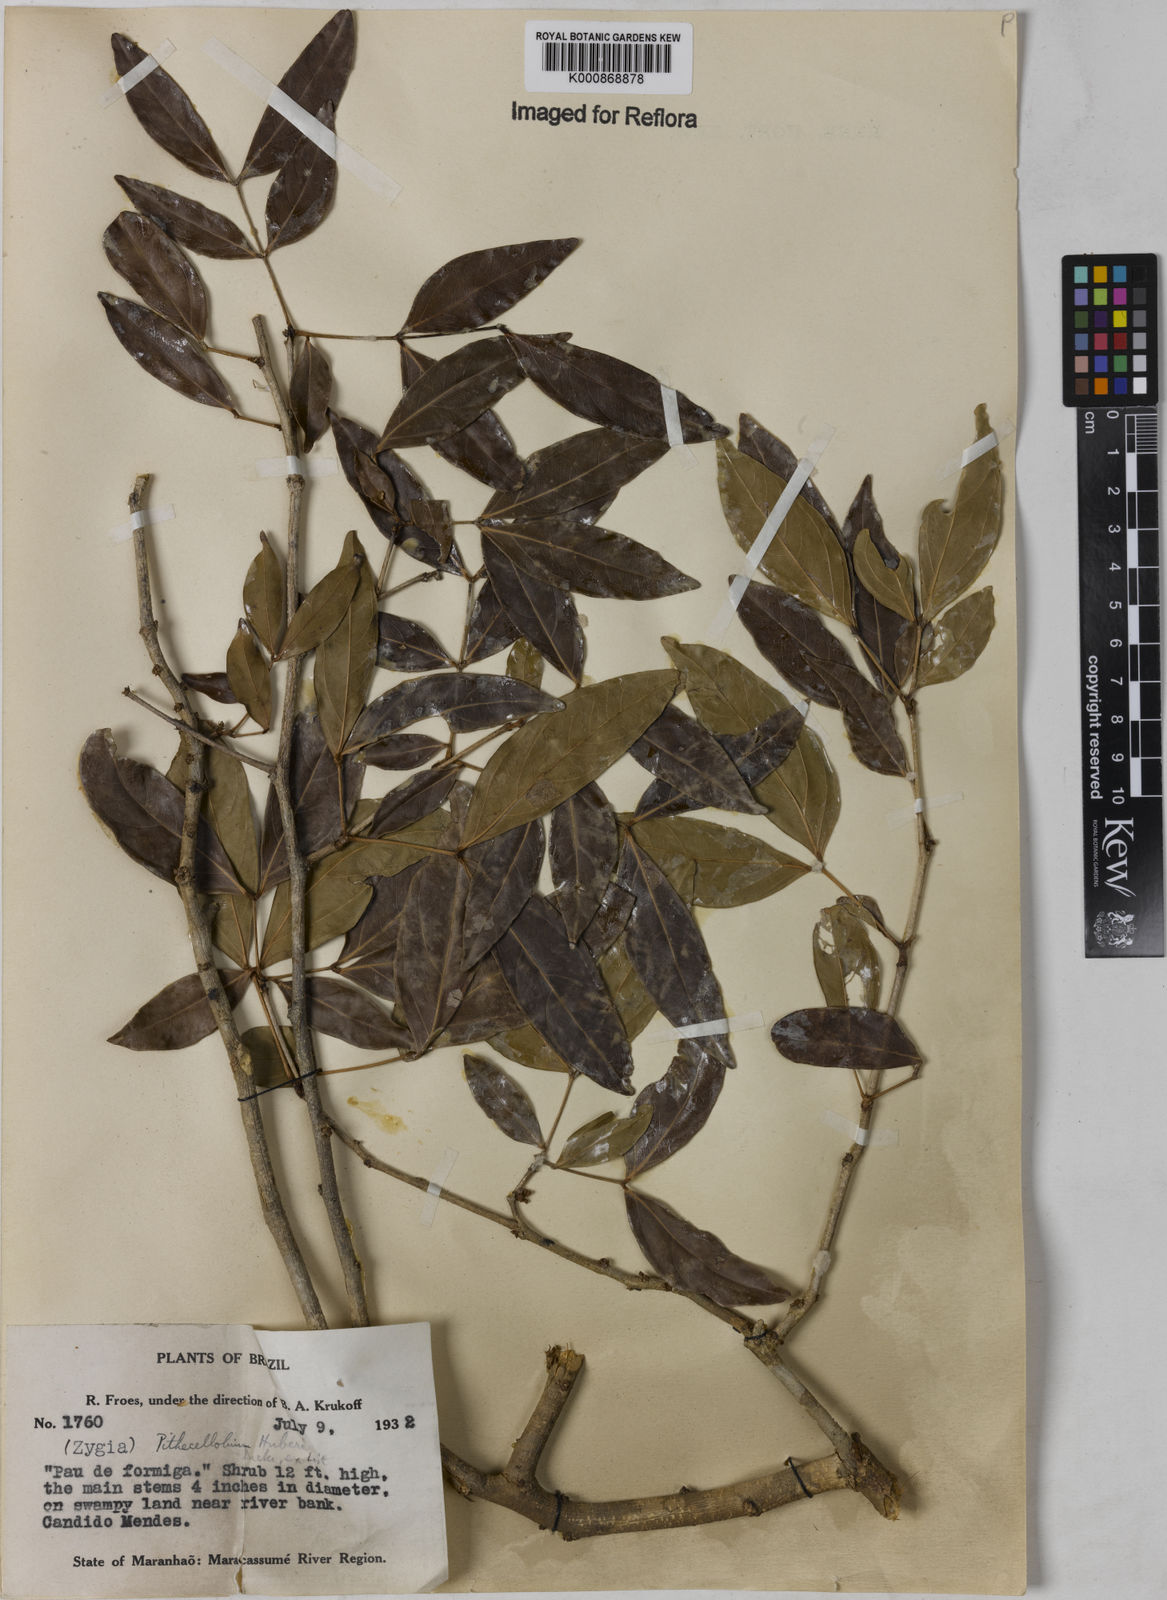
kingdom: Plantae
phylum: Tracheophyta
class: Magnoliopsida
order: Fabales
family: Fabaceae
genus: Zygia
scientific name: Zygia latifolia
